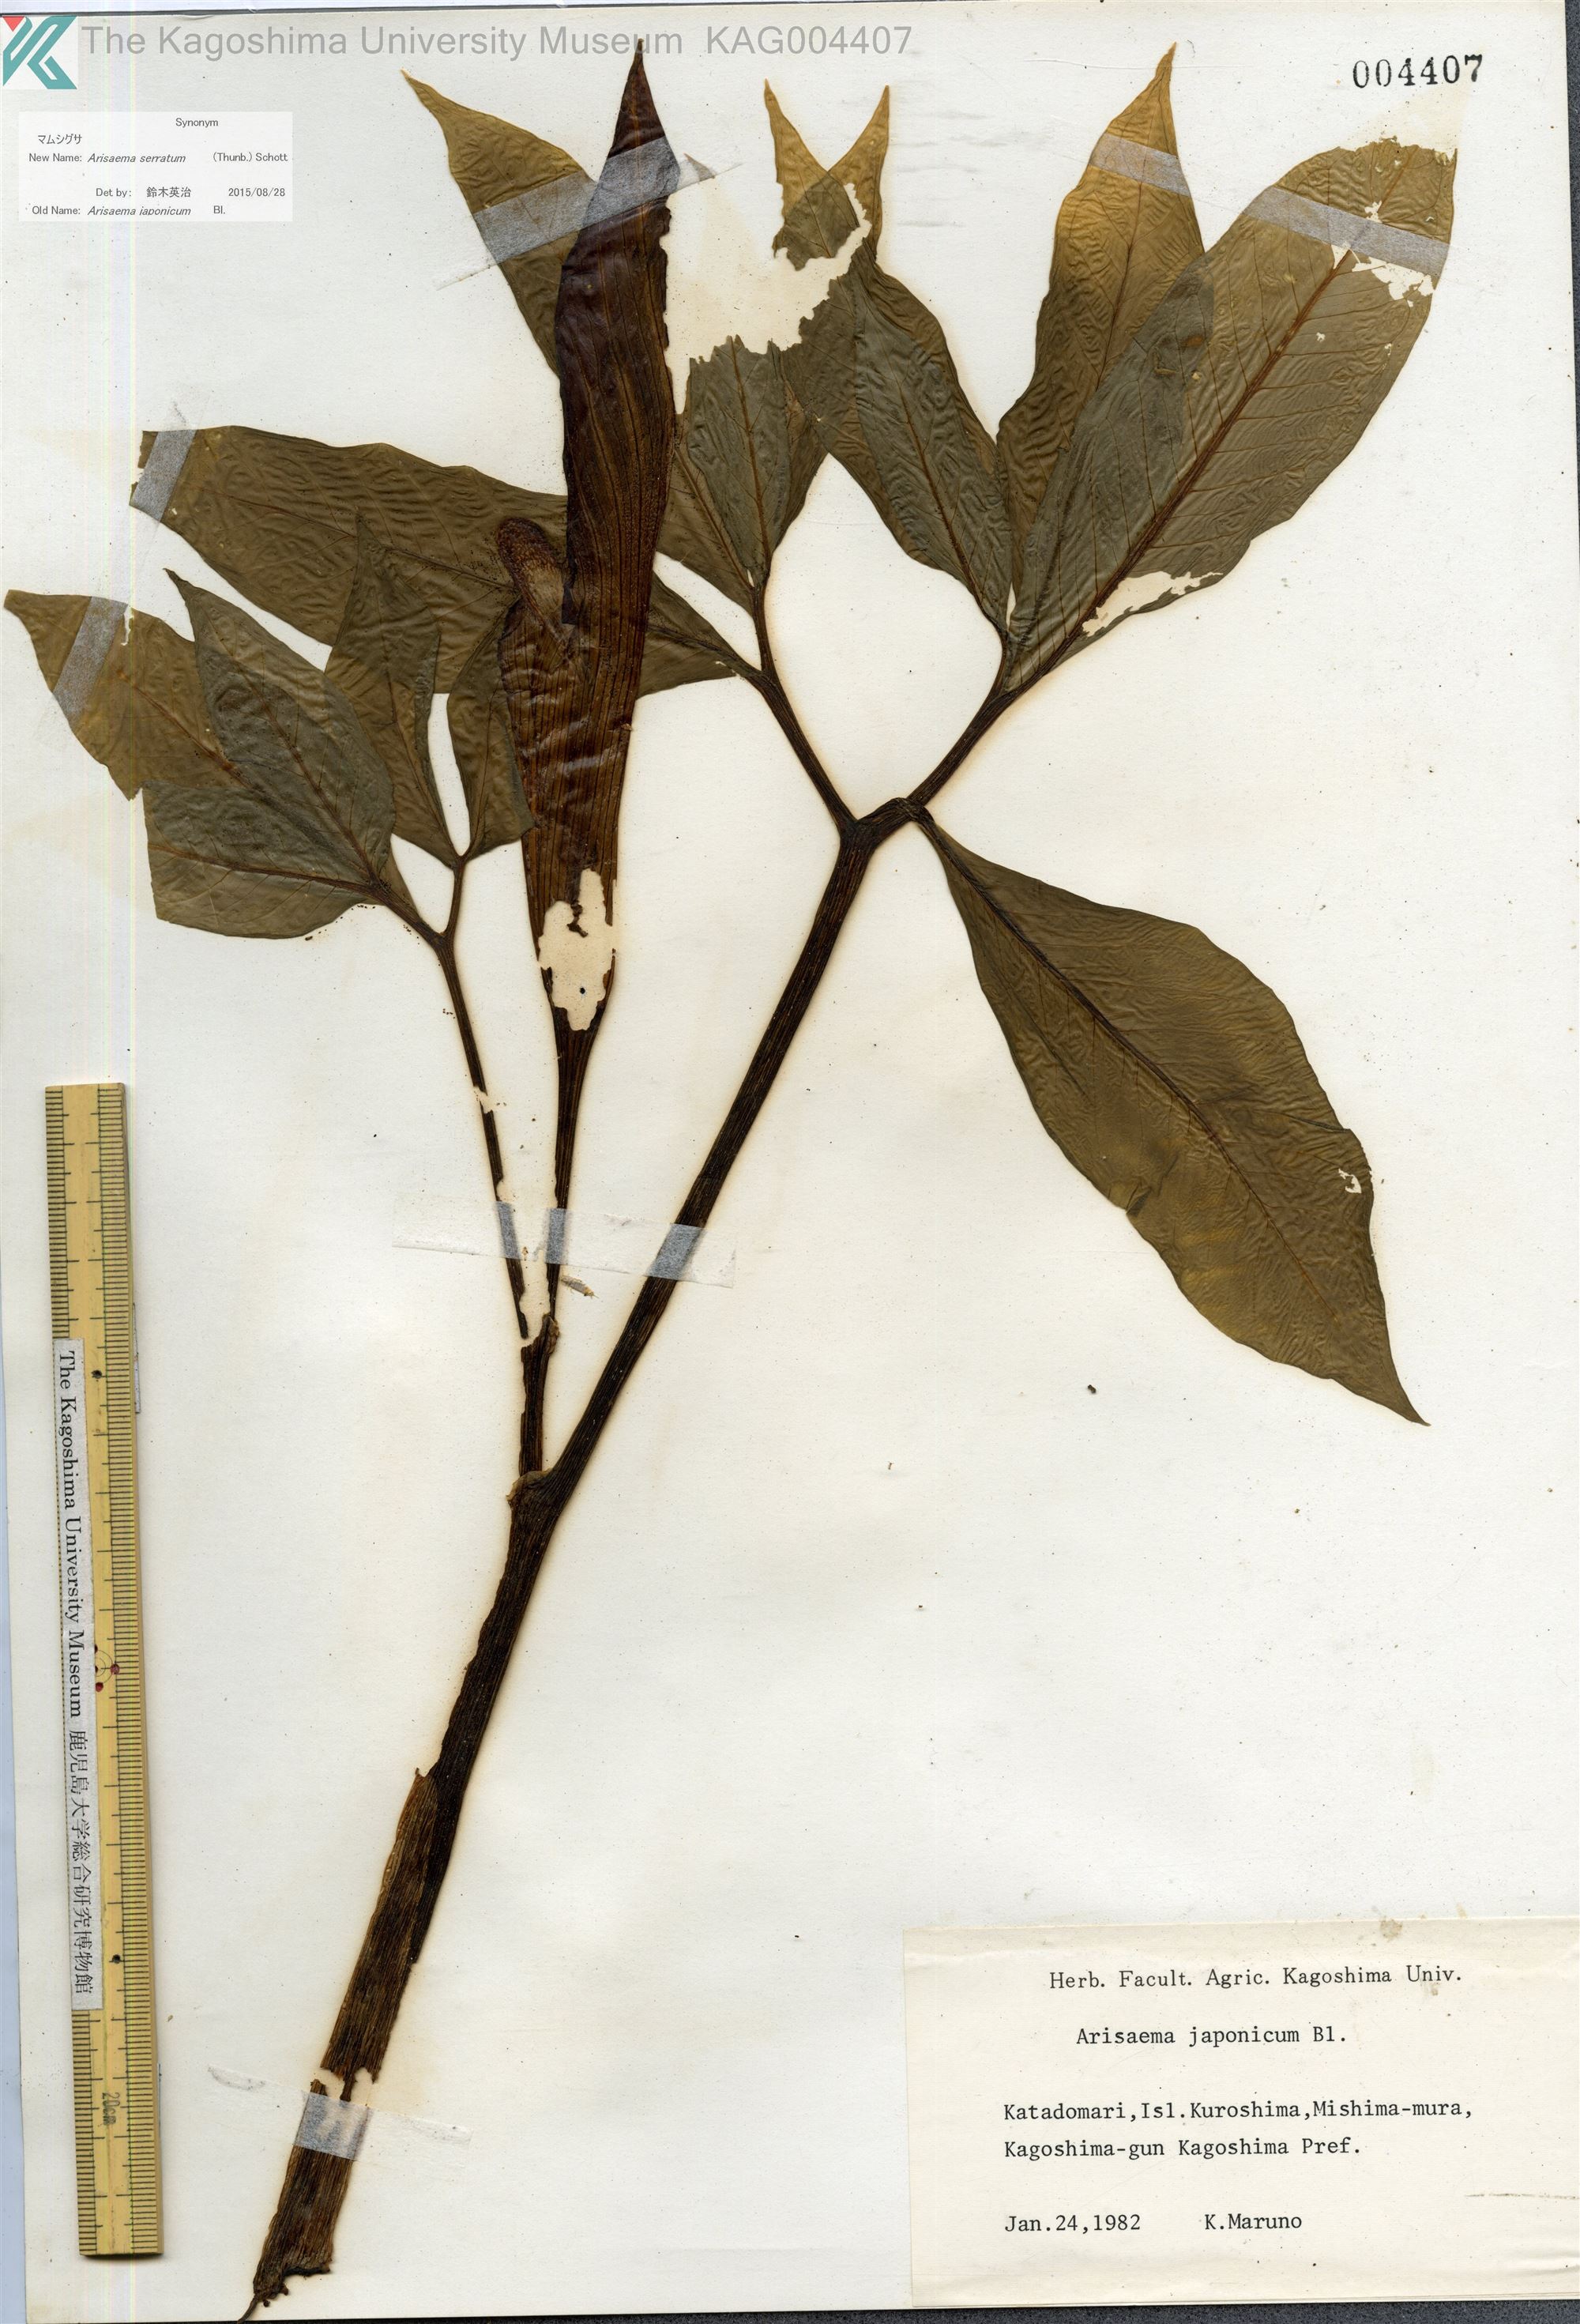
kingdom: Plantae
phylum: Tracheophyta
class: Liliopsida
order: Alismatales
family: Araceae
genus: Arisaema
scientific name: Arisaema serratum
